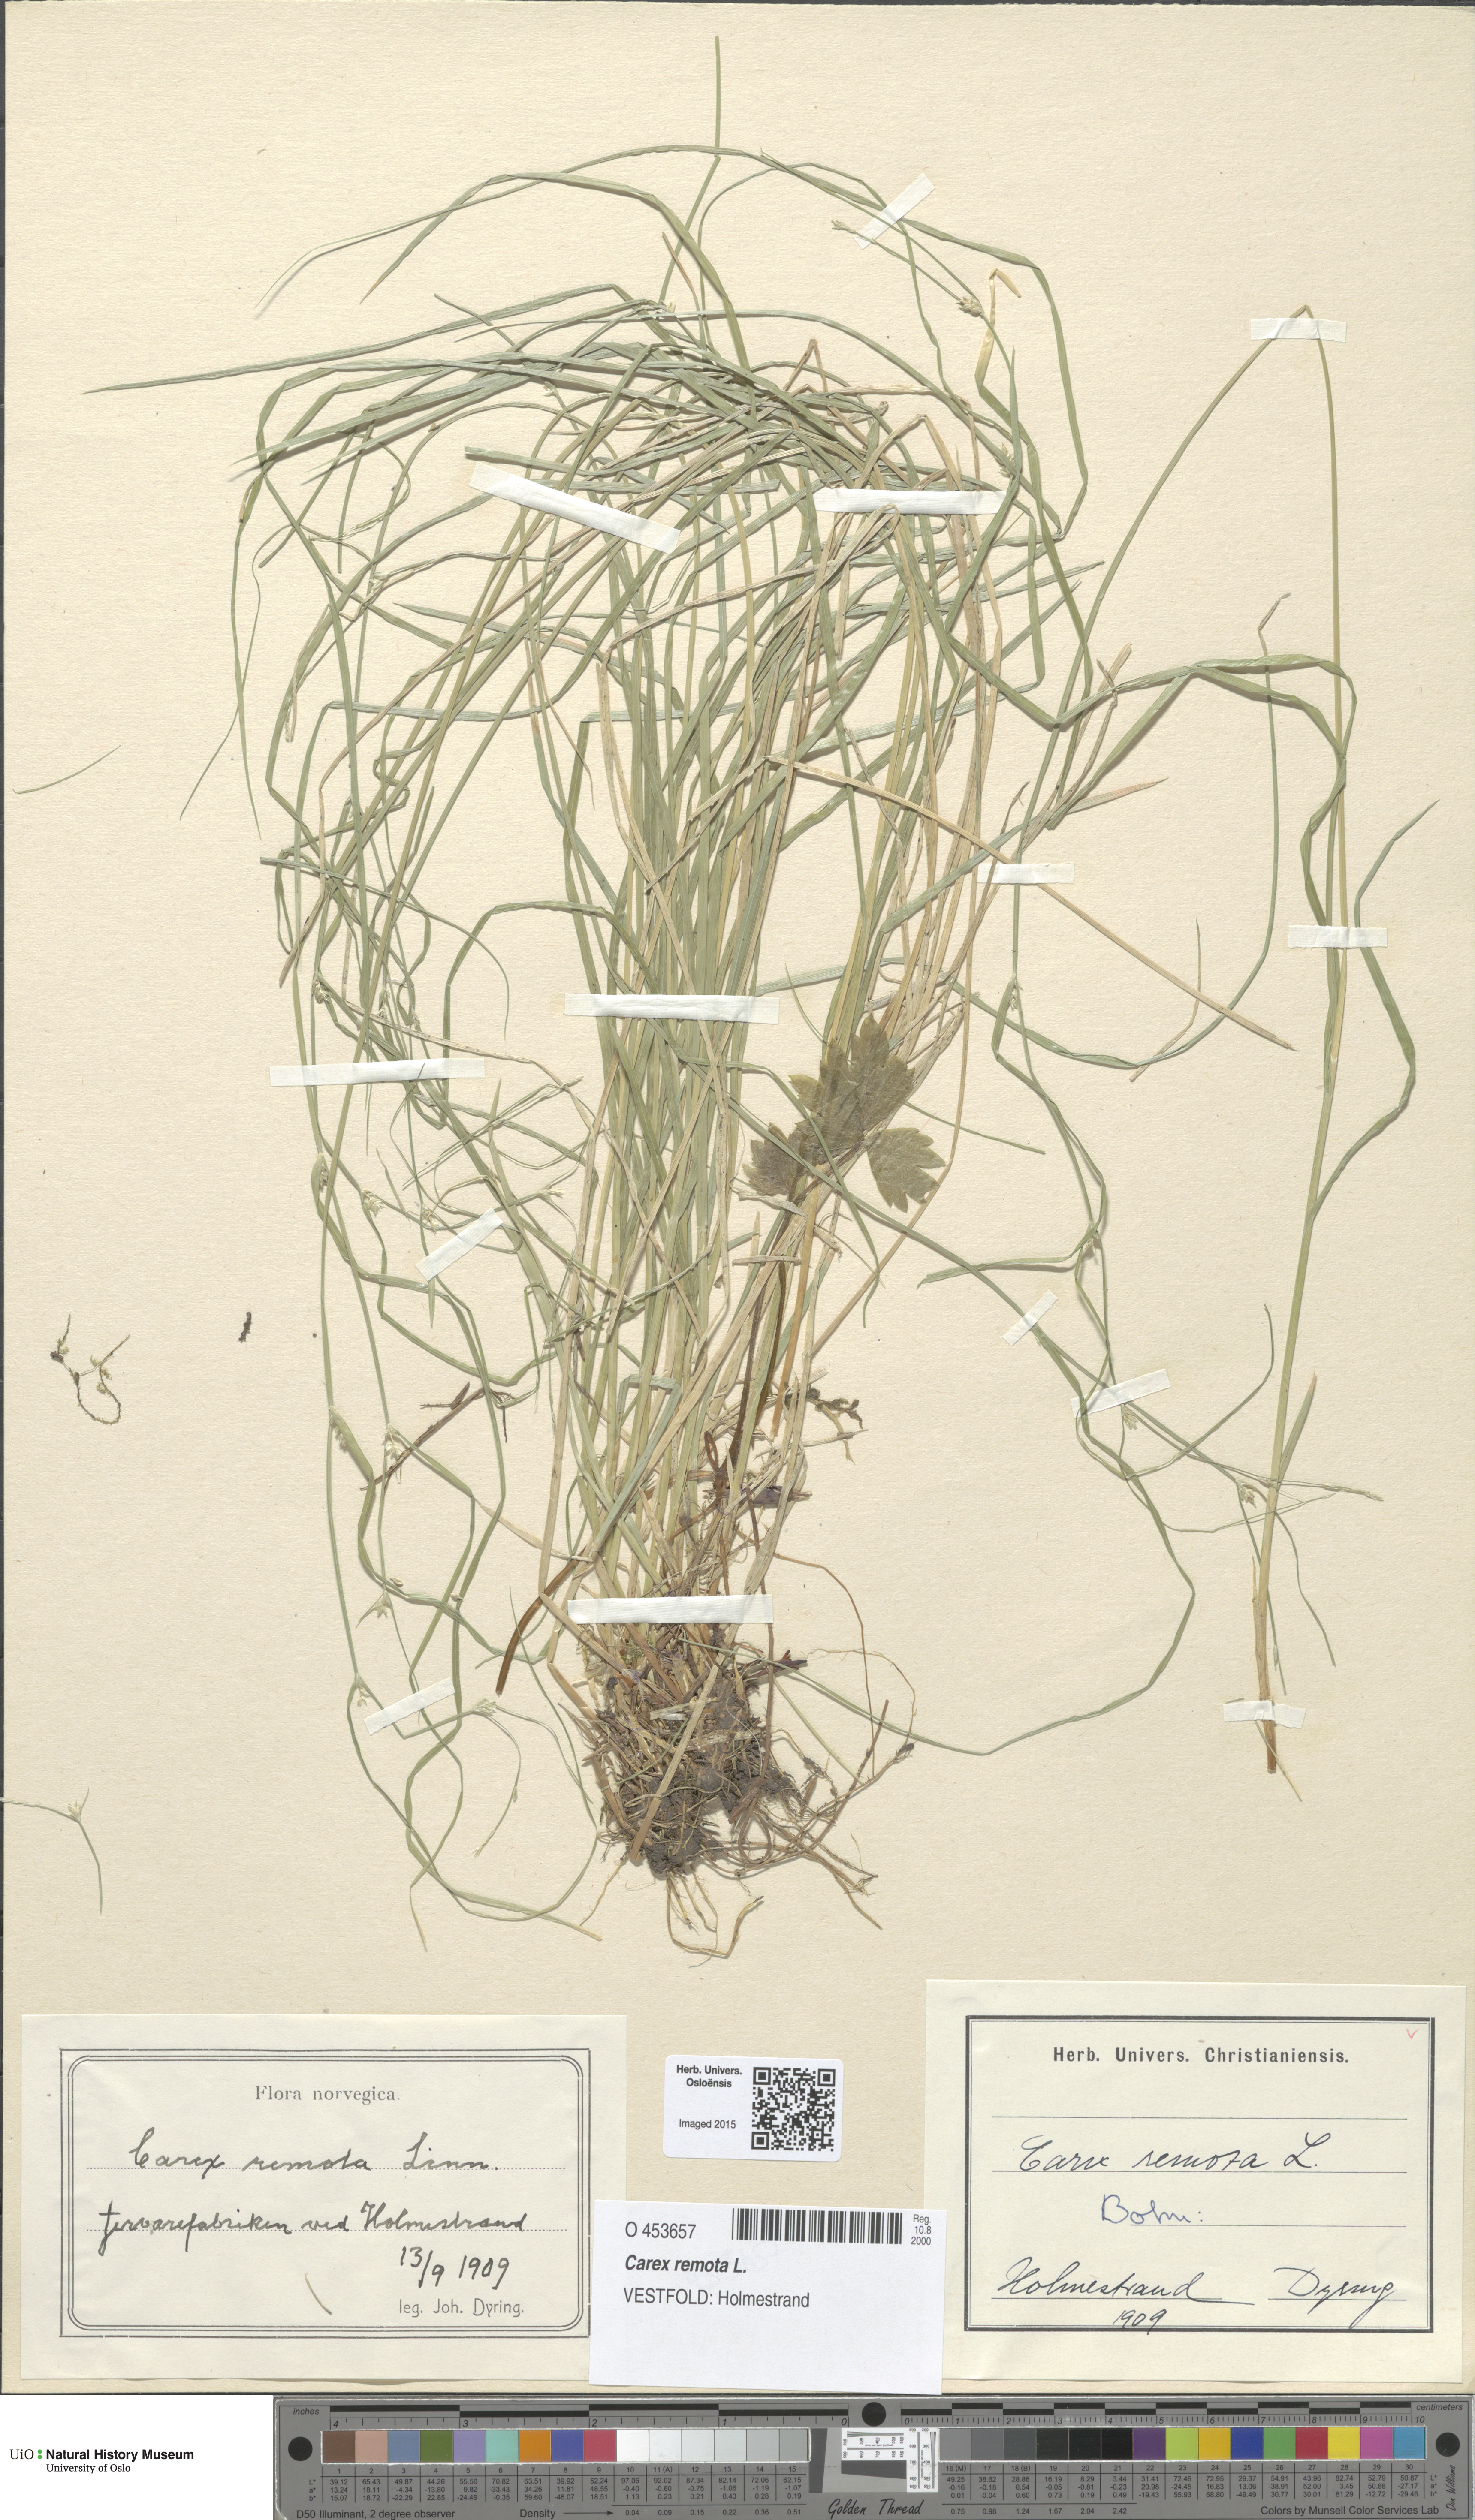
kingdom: Plantae
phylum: Tracheophyta
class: Liliopsida
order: Poales
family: Cyperaceae
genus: Carex
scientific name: Carex remota
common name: Remote sedge
